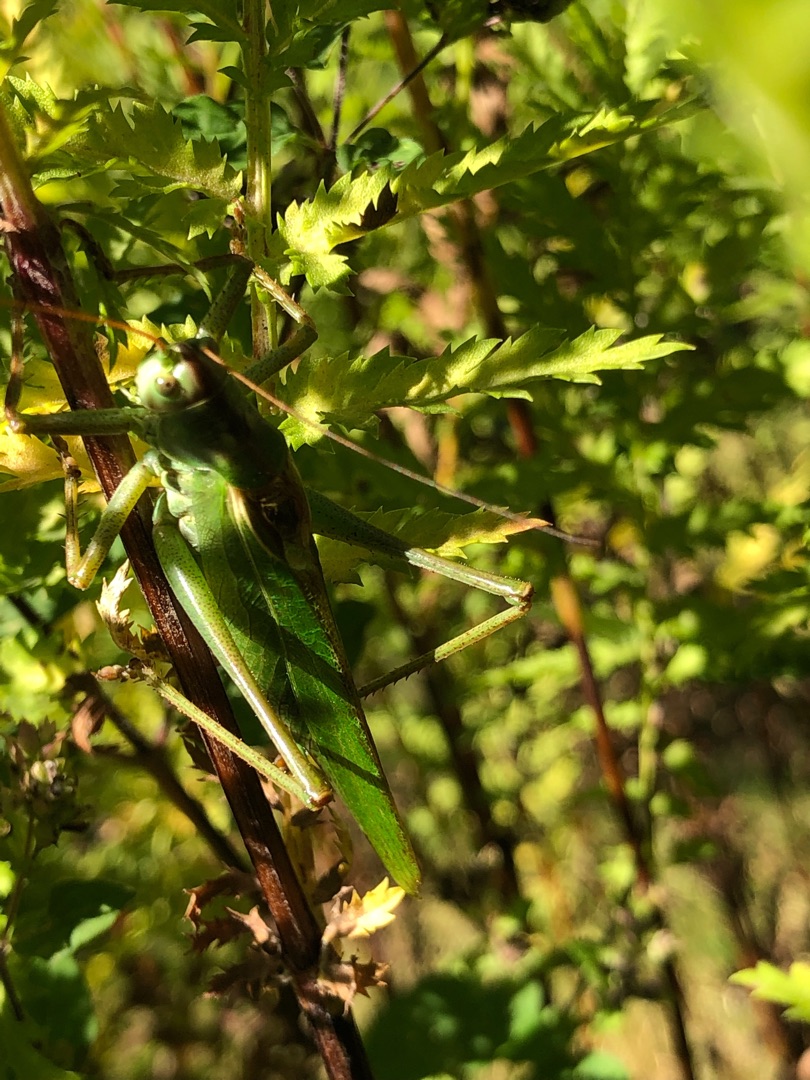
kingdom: Animalia
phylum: Arthropoda
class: Insecta
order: Orthoptera
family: Tettigoniidae
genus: Tettigonia
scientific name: Tettigonia viridissima
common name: Stor grøn løvgræshoppe
